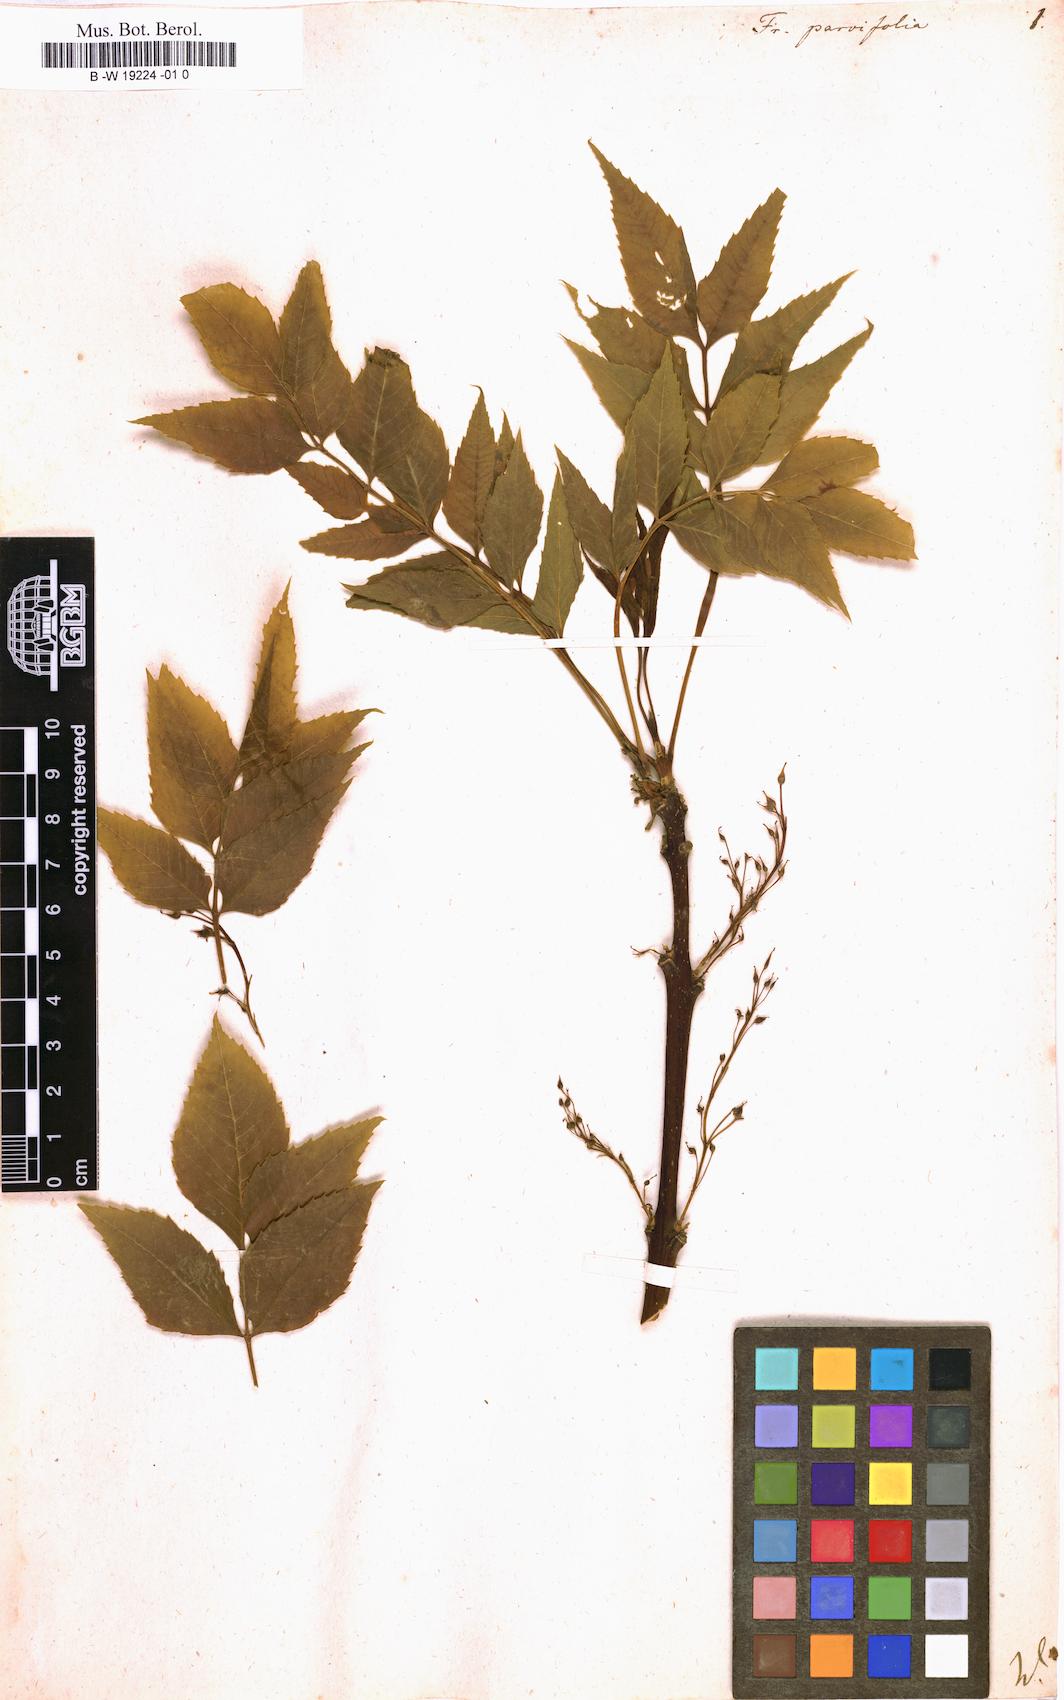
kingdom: Plantae
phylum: Tracheophyta
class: Magnoliopsida
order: Lamiales
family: Oleaceae
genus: Fraxinus
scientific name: Fraxinus bungeana
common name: Northern ash
